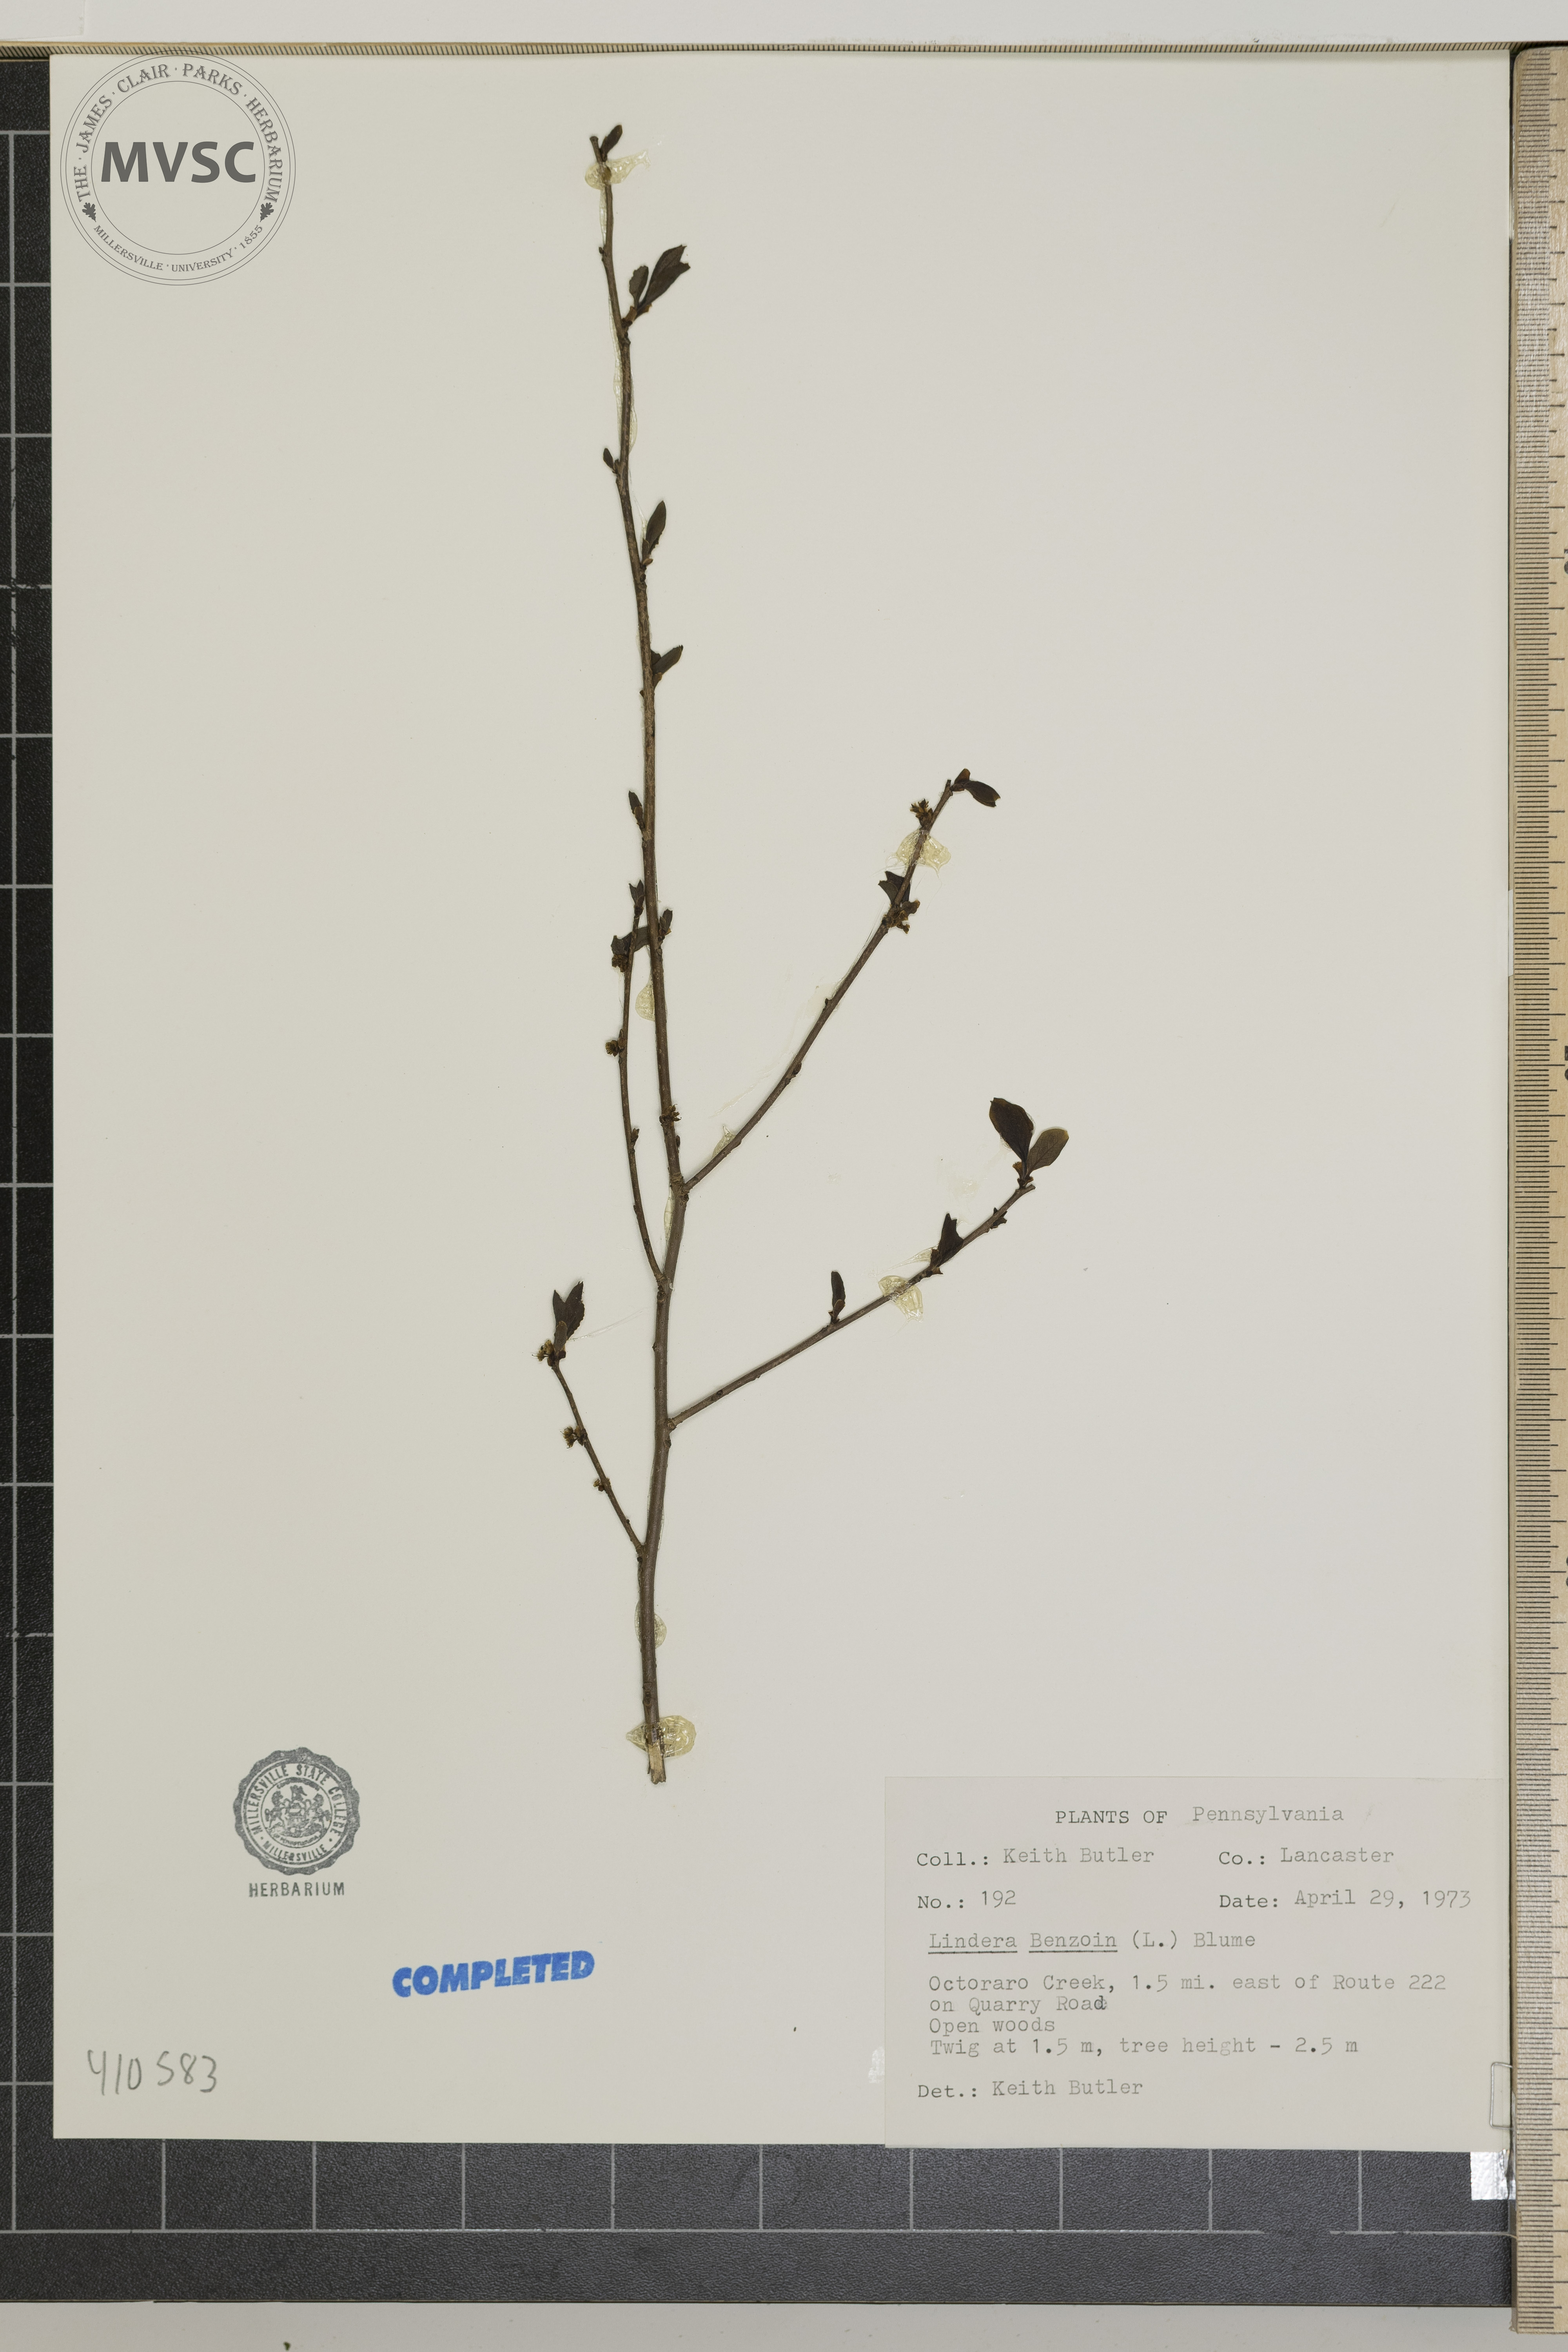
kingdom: Plantae
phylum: Tracheophyta
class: Magnoliopsida
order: Laurales
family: Lauraceae
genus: Lindera
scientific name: Lindera benzoin
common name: Spicebush
